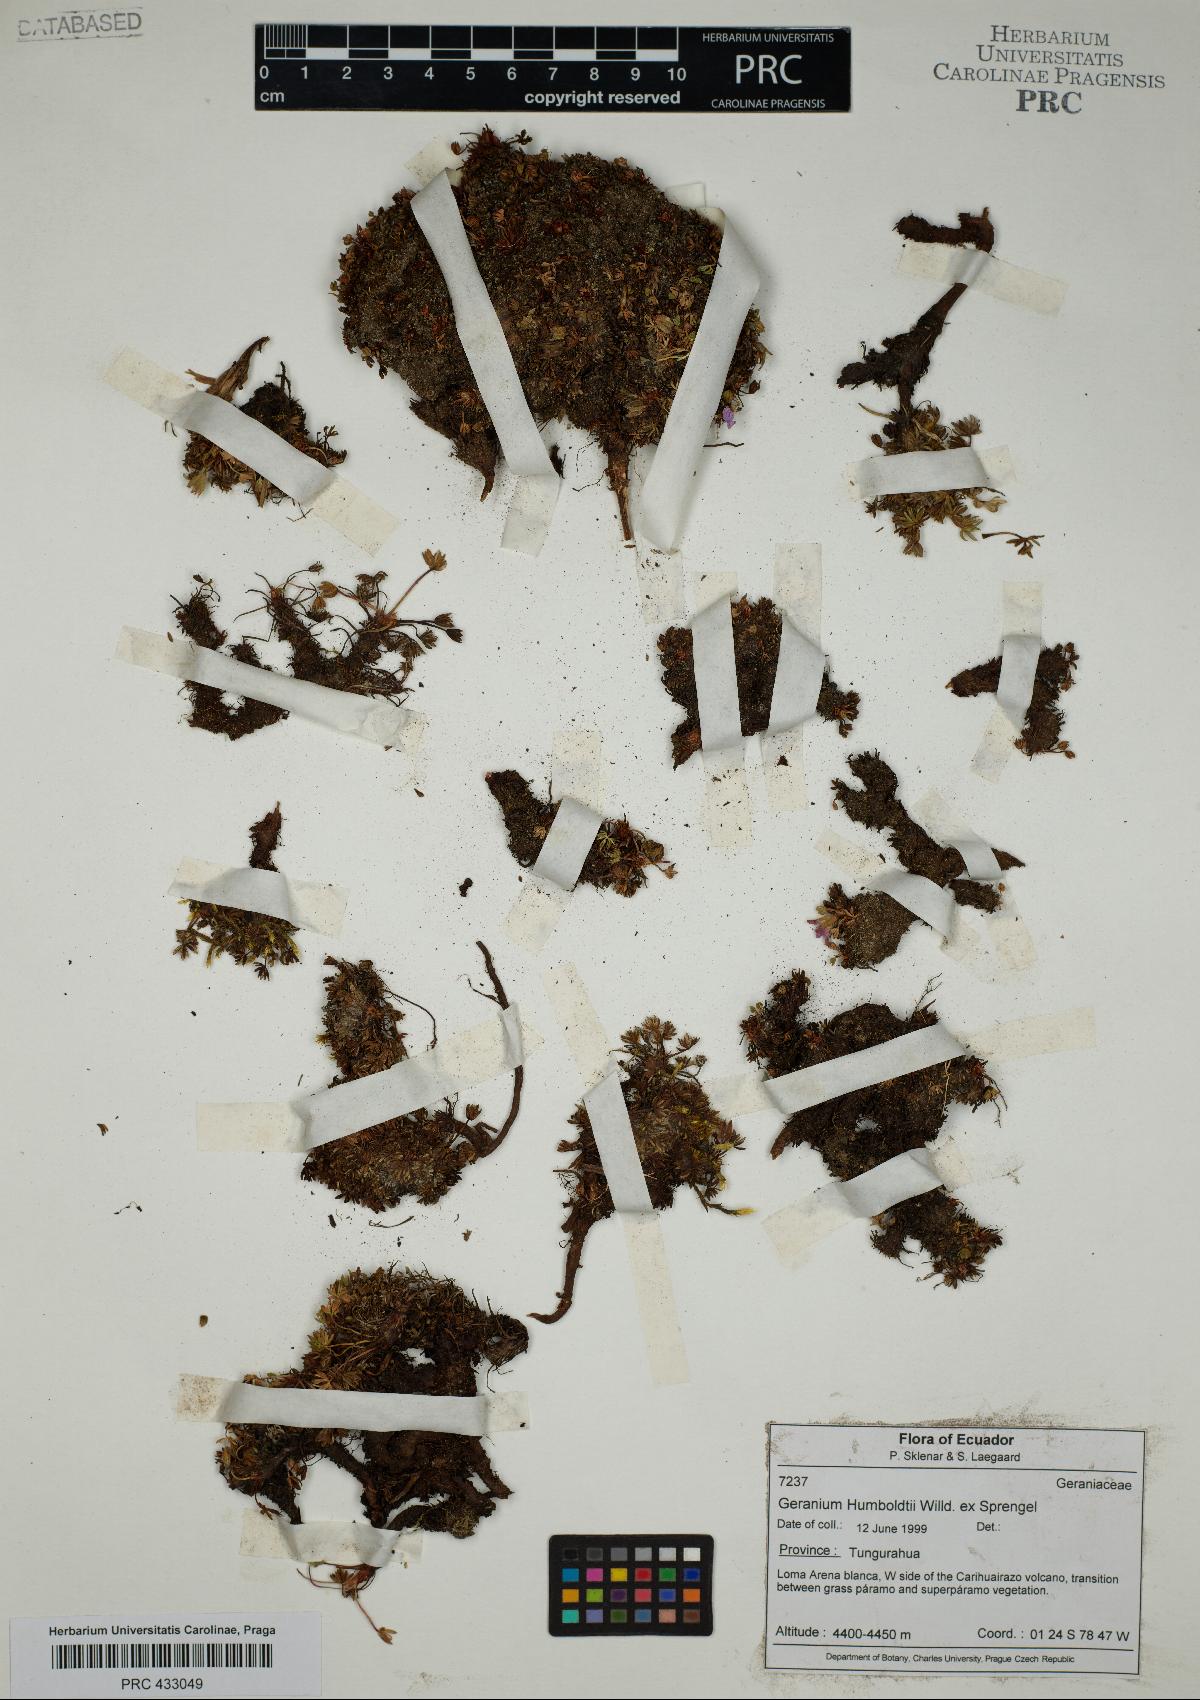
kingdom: Plantae
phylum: Tracheophyta
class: Magnoliopsida
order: Geraniales
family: Geraniaceae
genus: Geranium
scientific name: Geranium humboldtii
